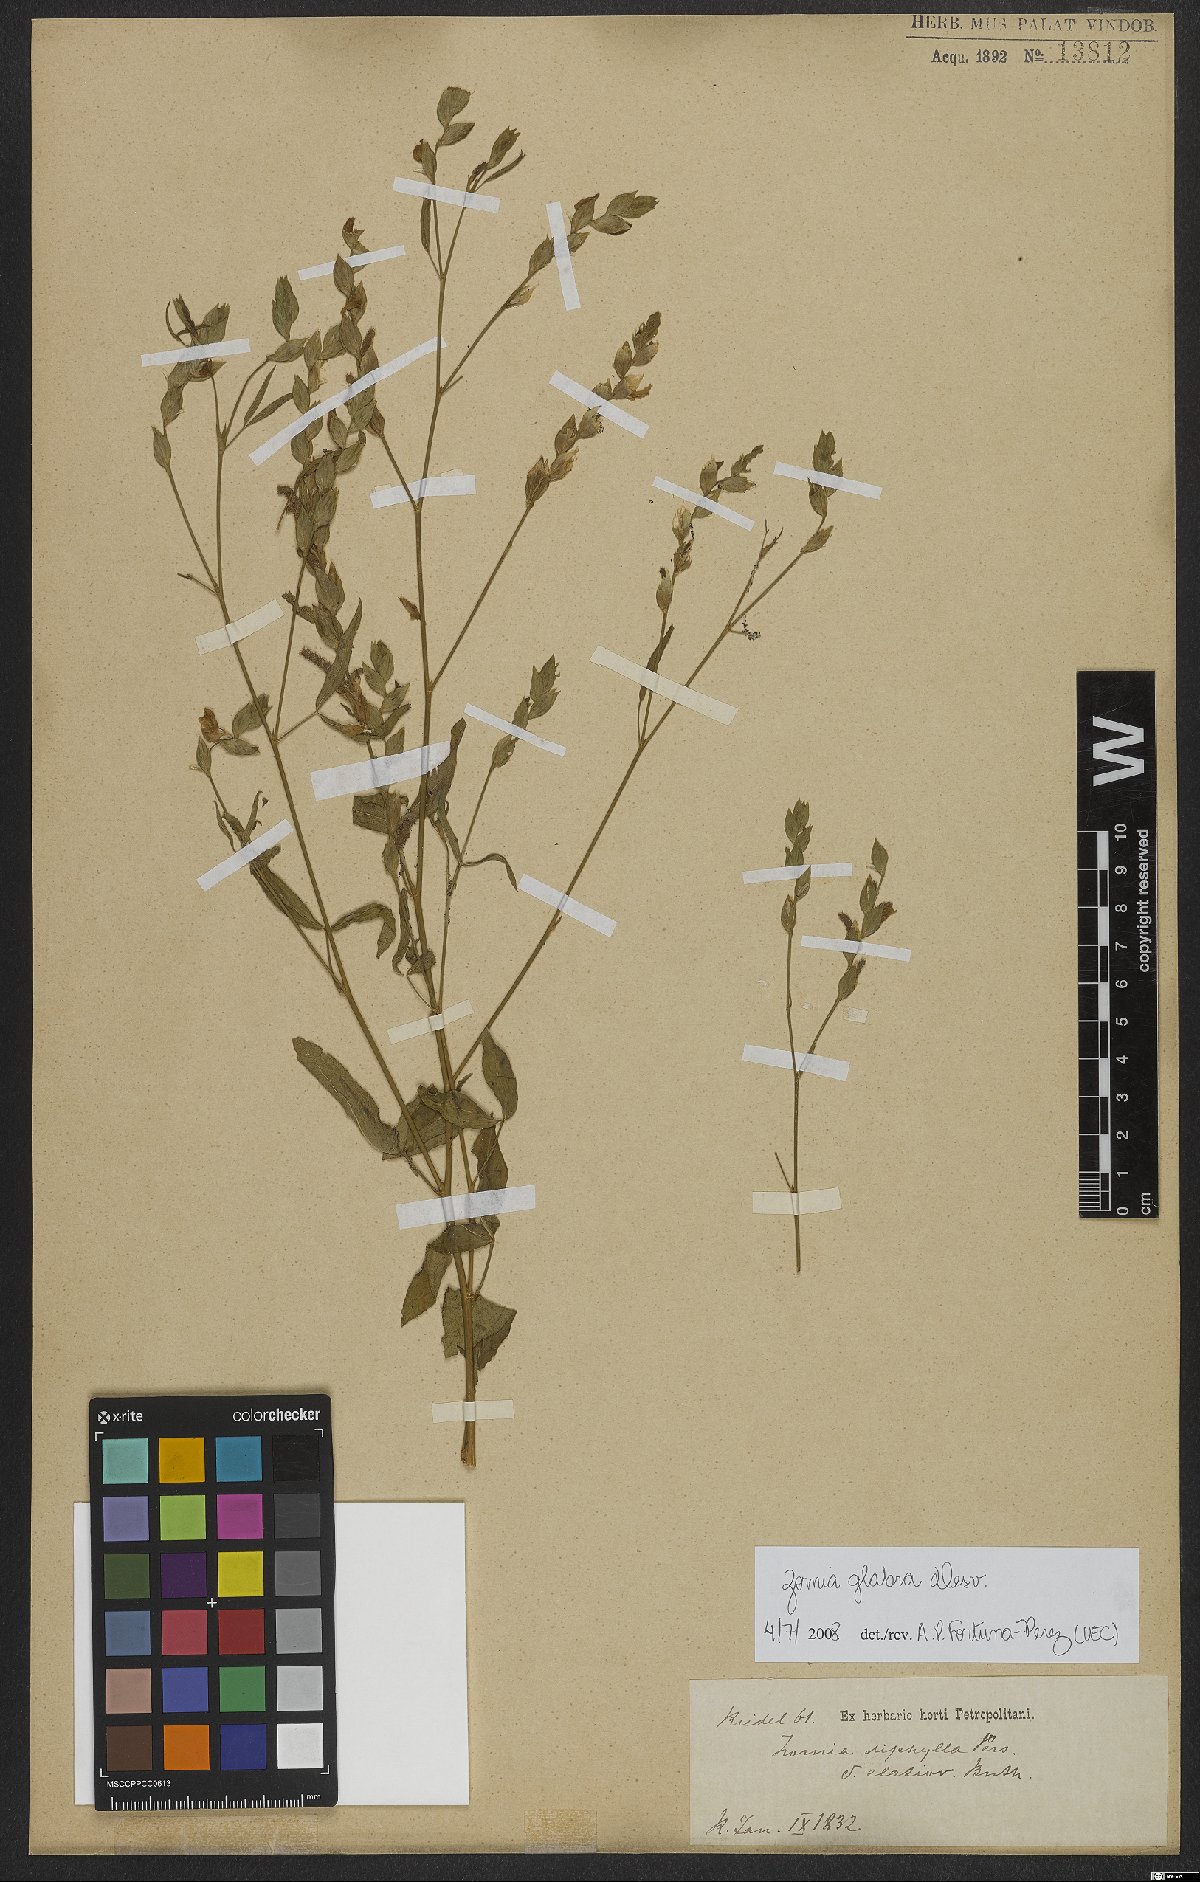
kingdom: Plantae
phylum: Tracheophyta
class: Magnoliopsida
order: Fabales
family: Fabaceae
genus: Zornia
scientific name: Zornia glabra
